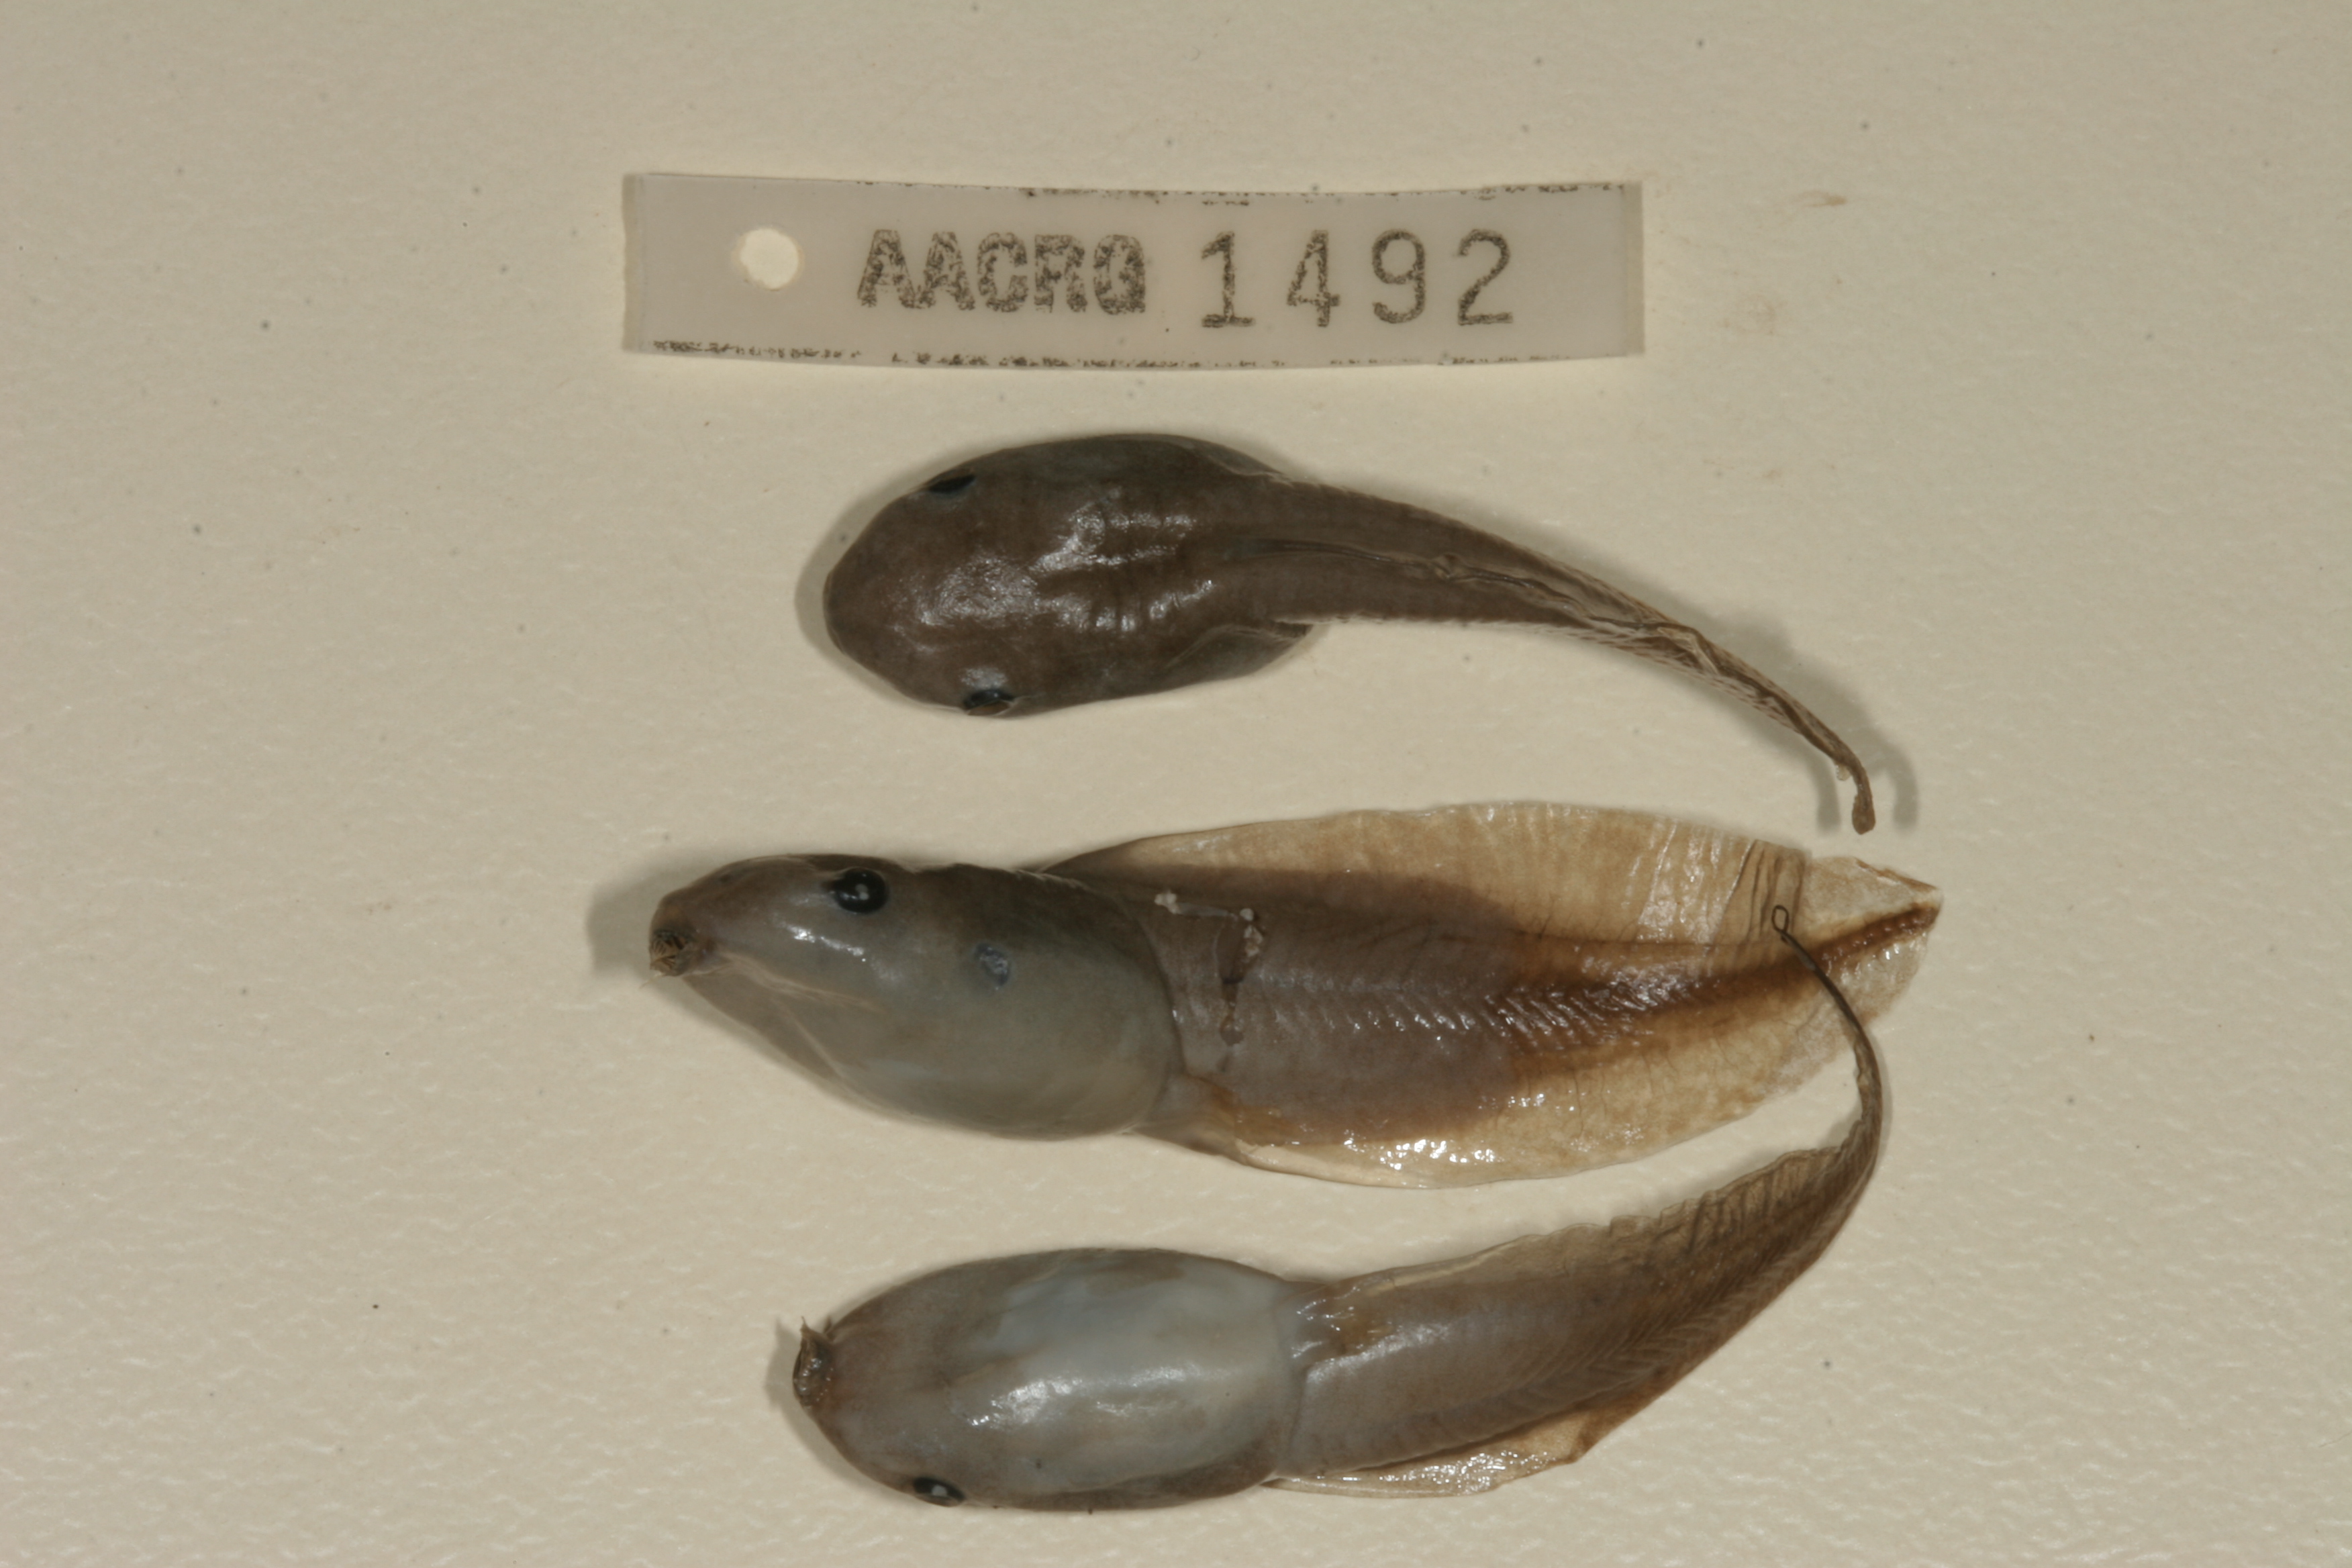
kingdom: Animalia
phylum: Chordata
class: Amphibia
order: Anura
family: Hemisotidae
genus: Hemisus
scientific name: Hemisus marmoratus
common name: Mottled shovel-nosed frog
